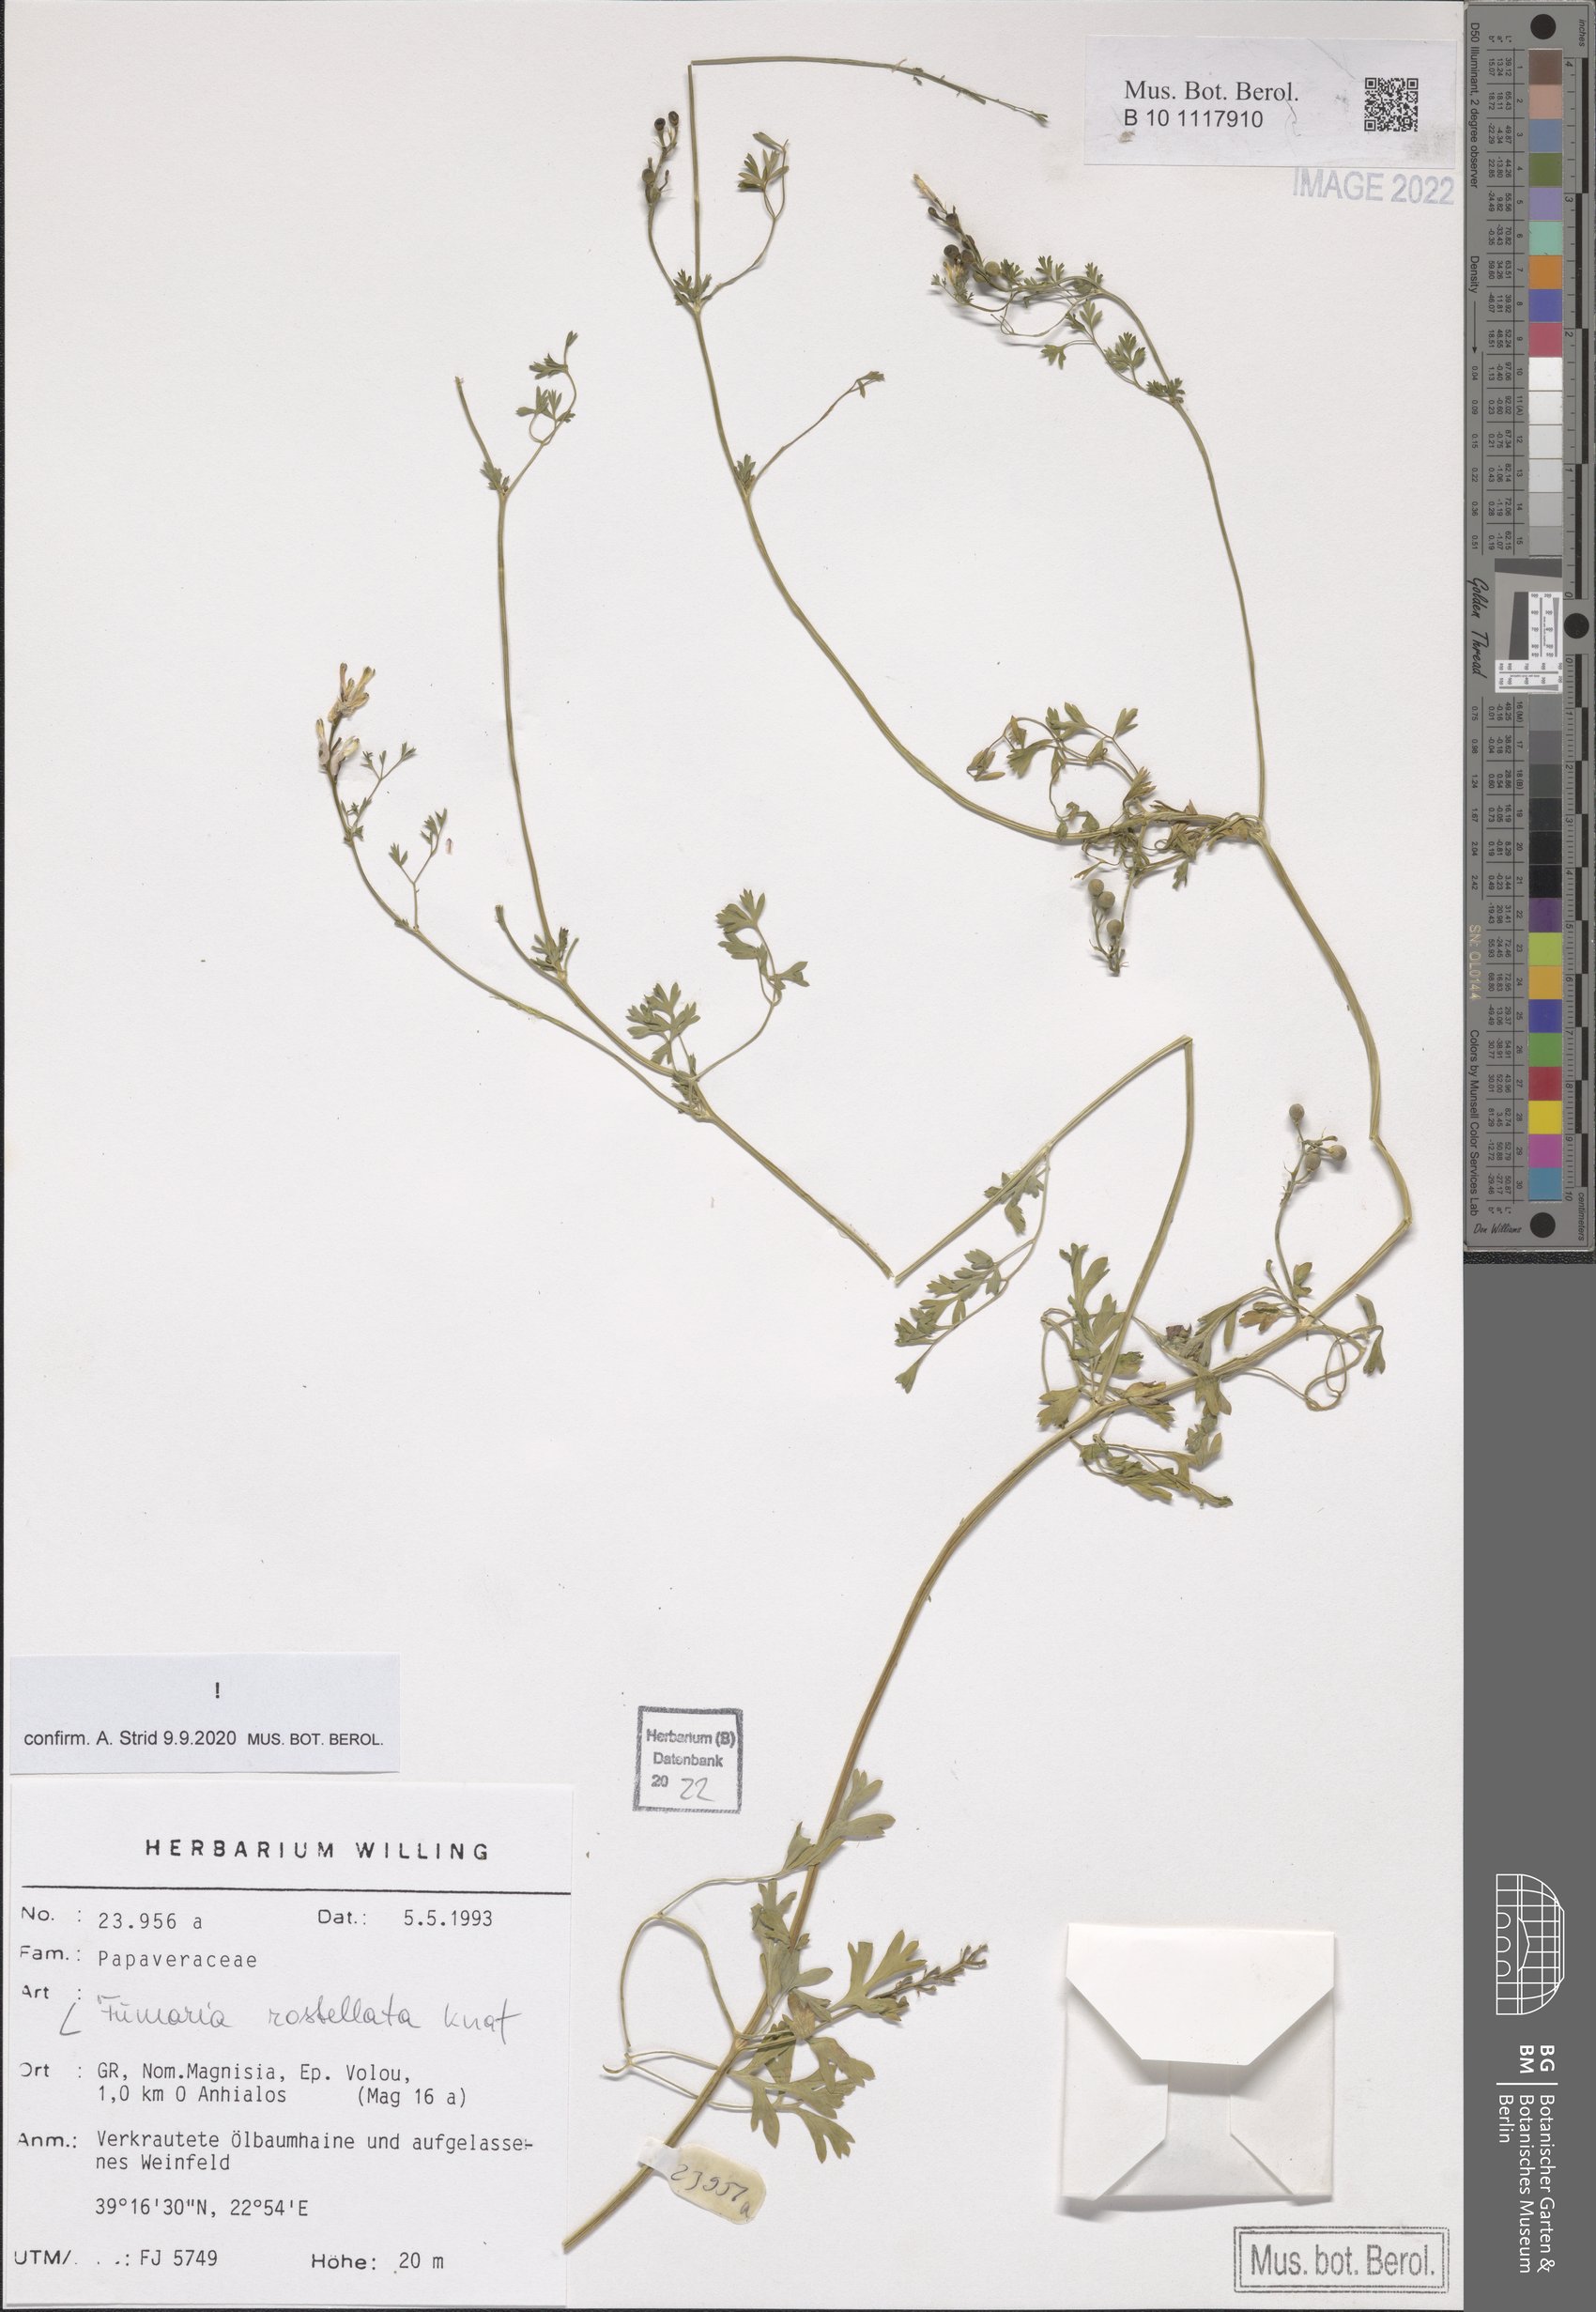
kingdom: Plantae
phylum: Tracheophyta
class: Magnoliopsida
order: Ranunculales
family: Papaveraceae
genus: Fumaria
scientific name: Fumaria rostellata
